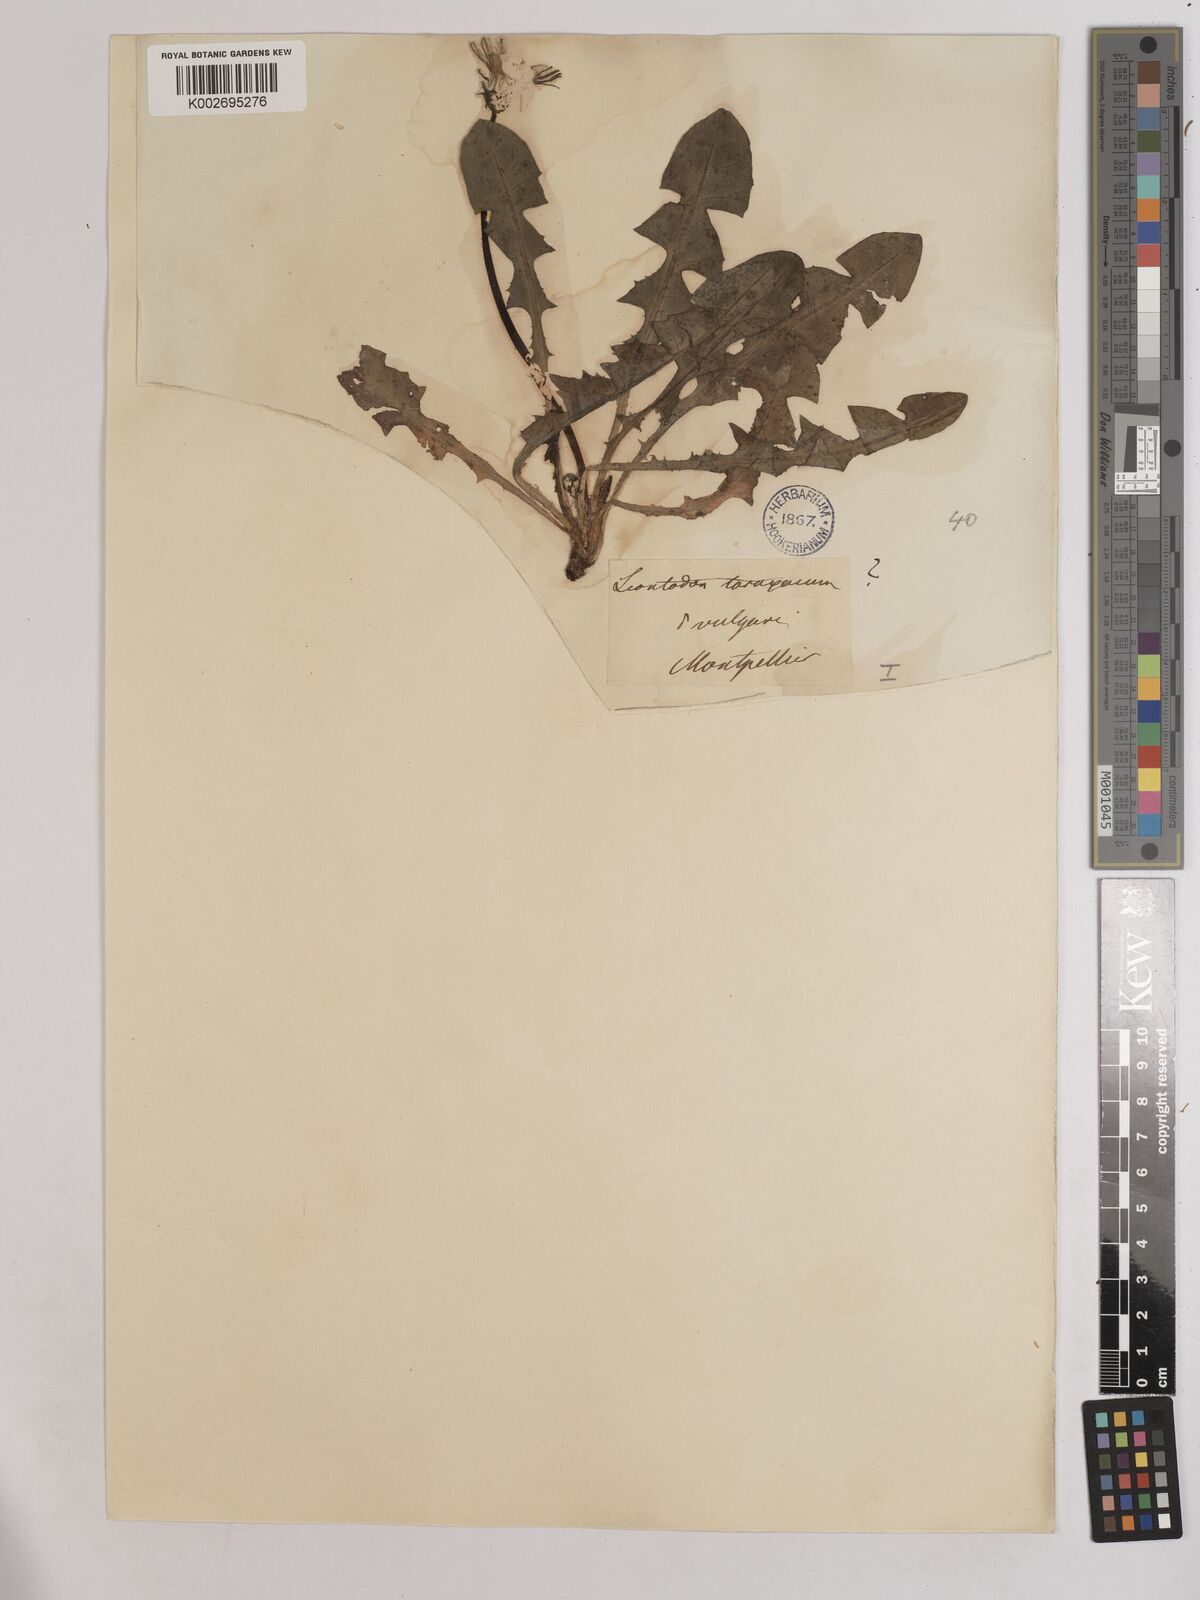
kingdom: Plantae
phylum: Tracheophyta
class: Magnoliopsida
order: Asterales
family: Asteraceae
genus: Taraxacum
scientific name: Taraxacum officinale
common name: Common dandelion
